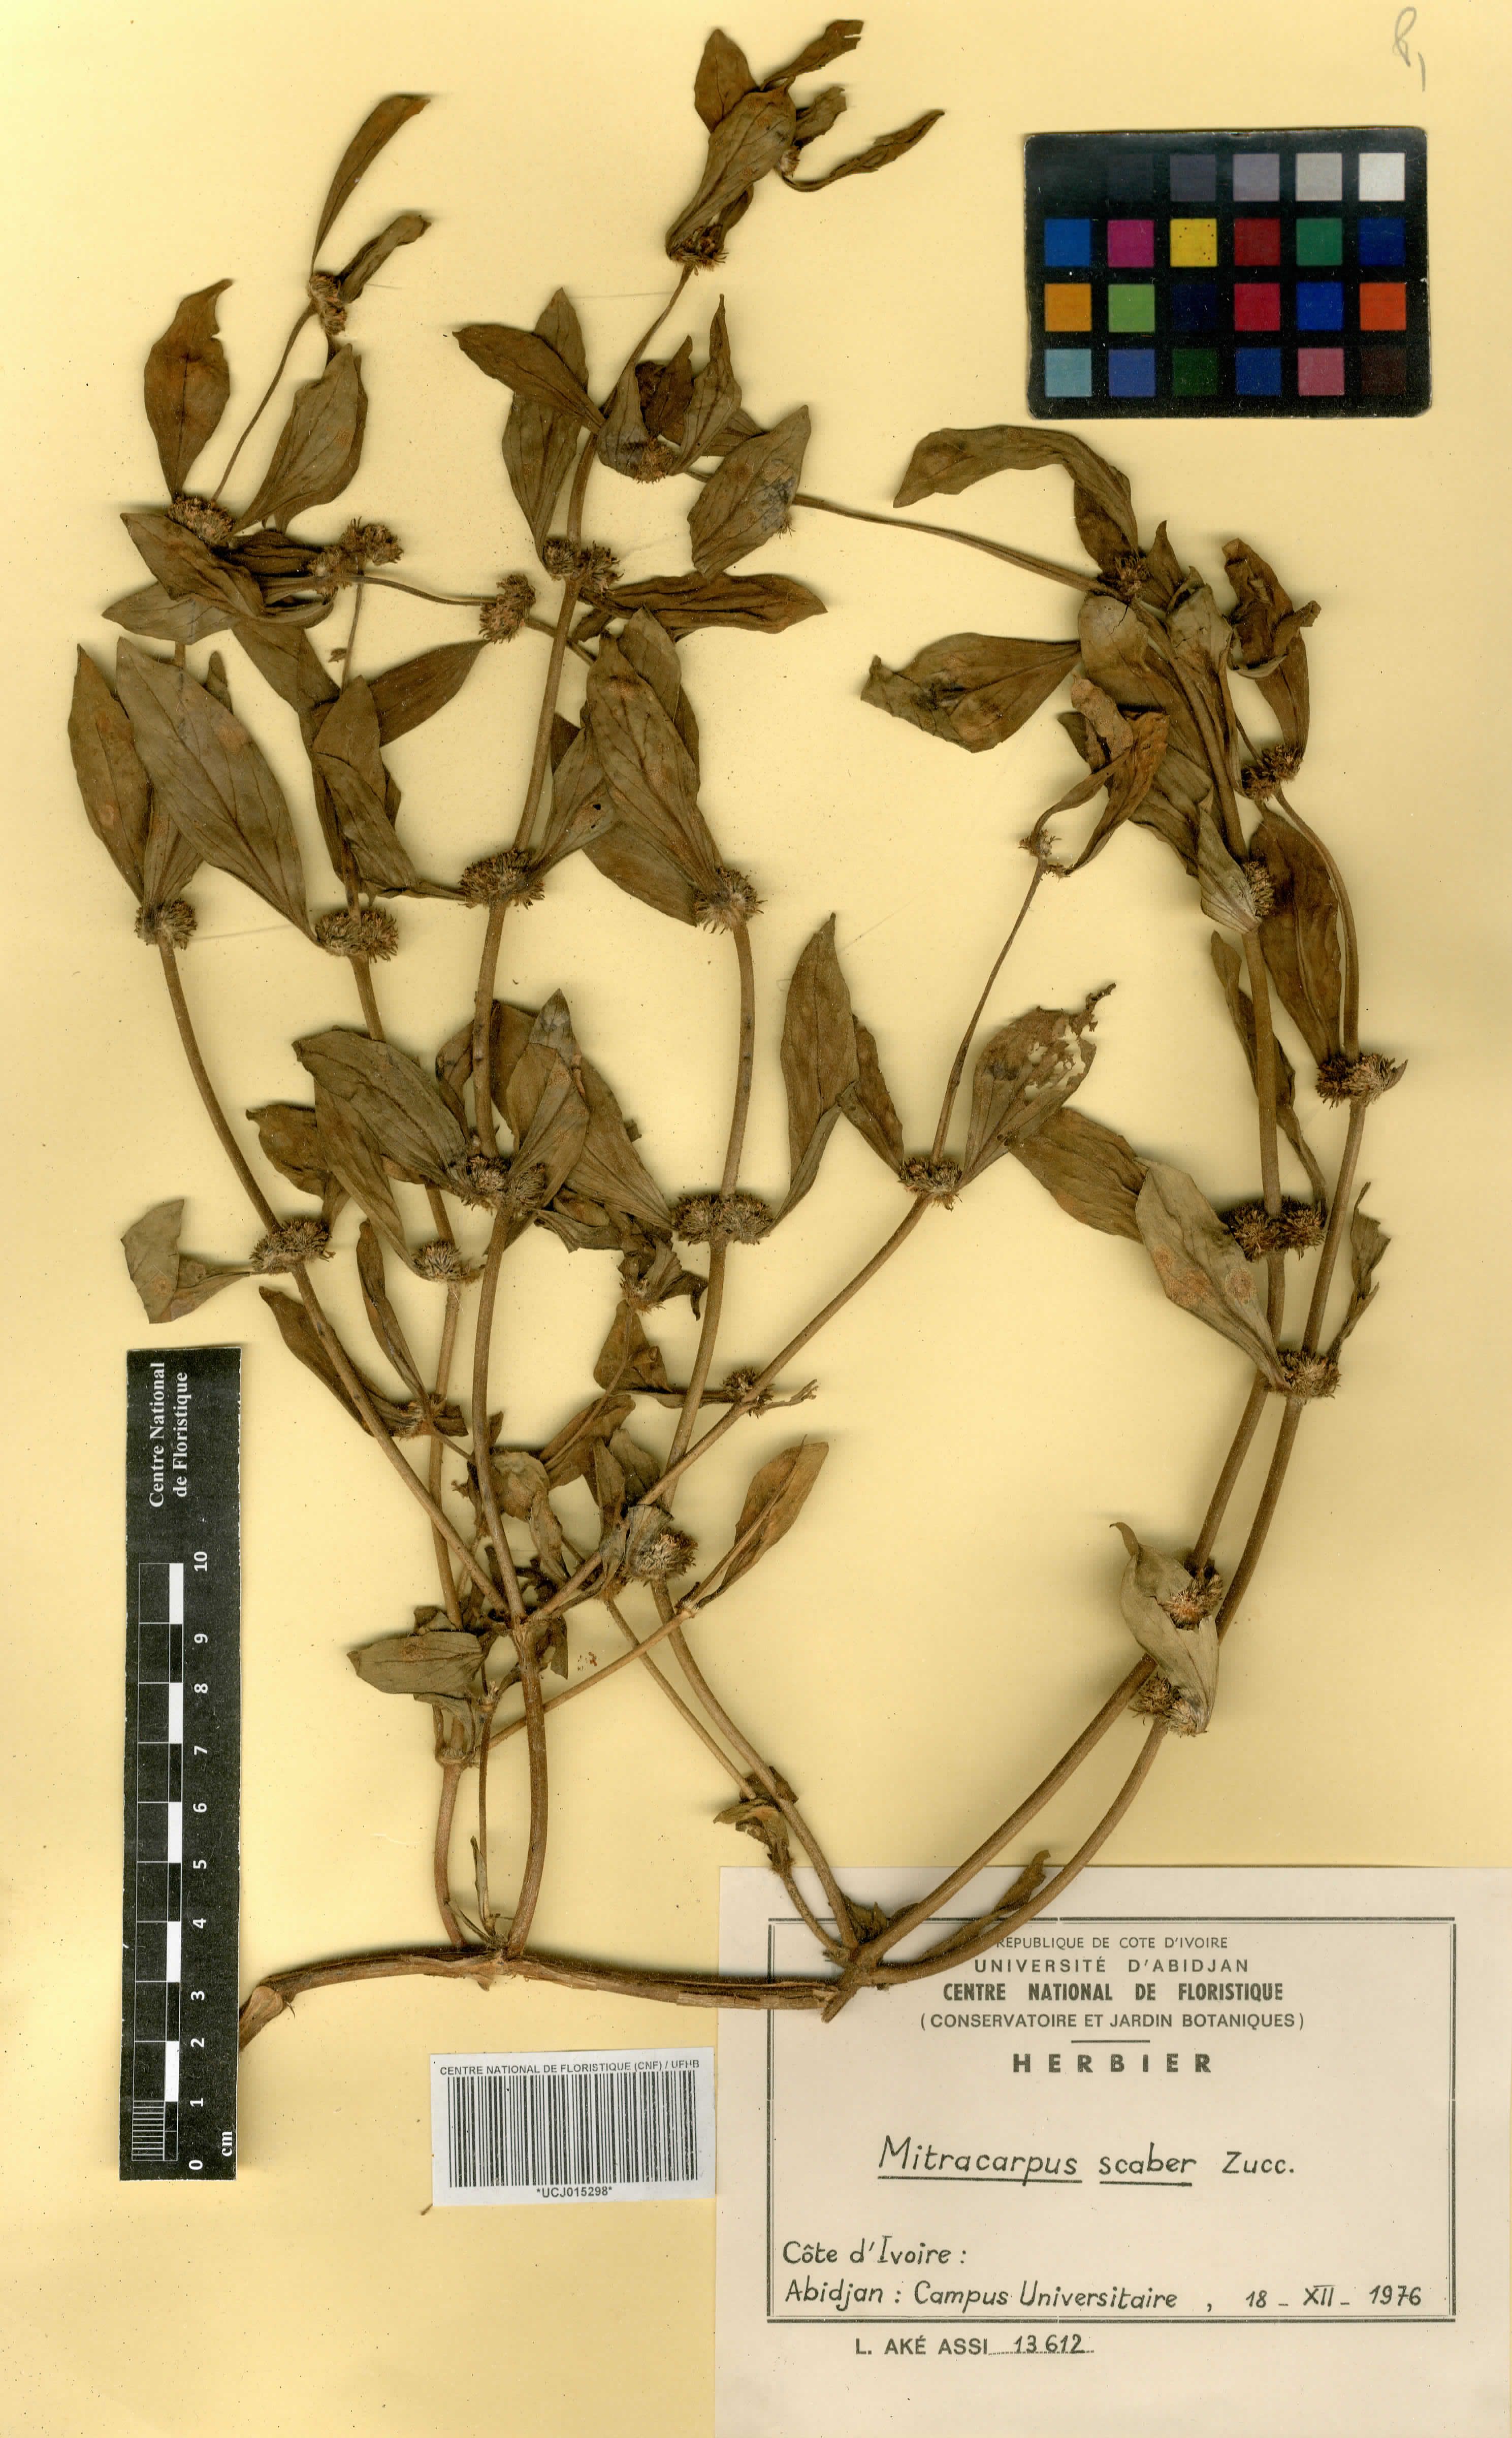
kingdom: Plantae
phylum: Tracheophyta
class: Magnoliopsida
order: Gentianales
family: Rubiaceae
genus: Mitracarpus
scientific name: Mitracarpus hirtus
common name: Tropical girdlepod
